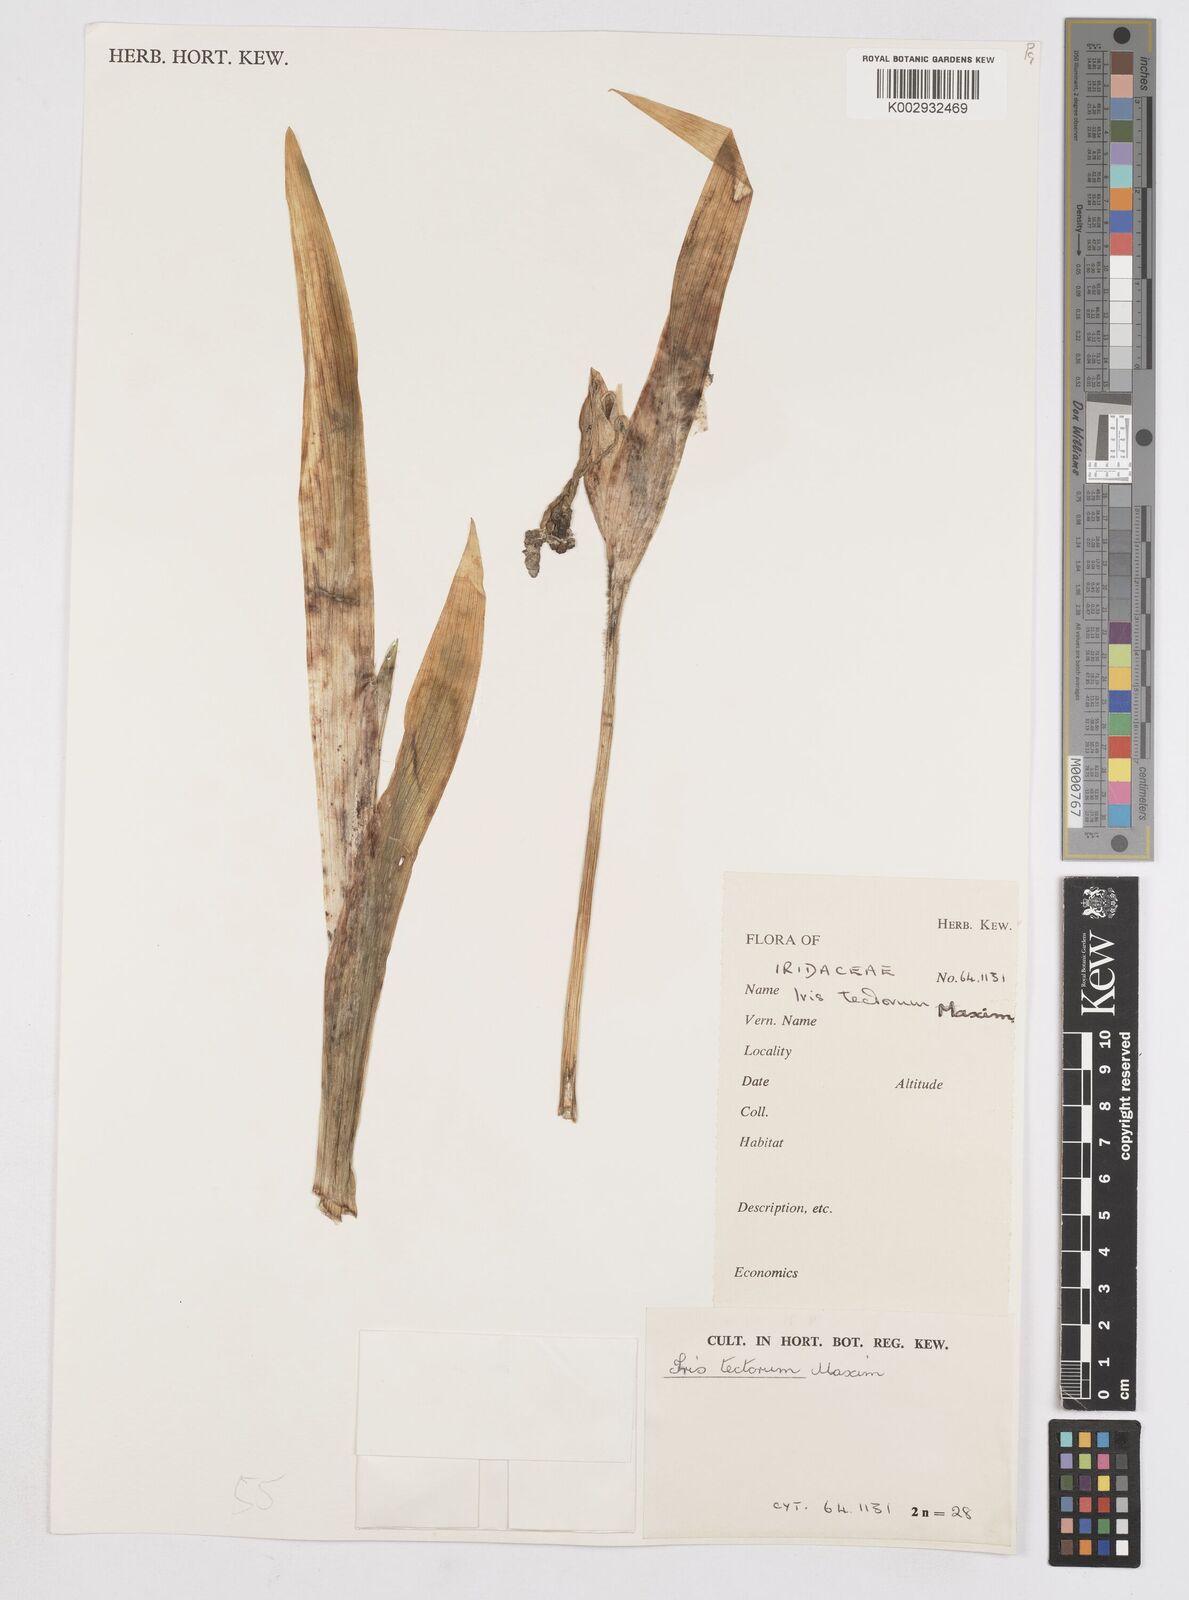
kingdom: Plantae
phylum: Tracheophyta
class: Liliopsida
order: Asparagales
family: Iridaceae
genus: Iris
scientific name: Iris tectorum
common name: Wall iris
